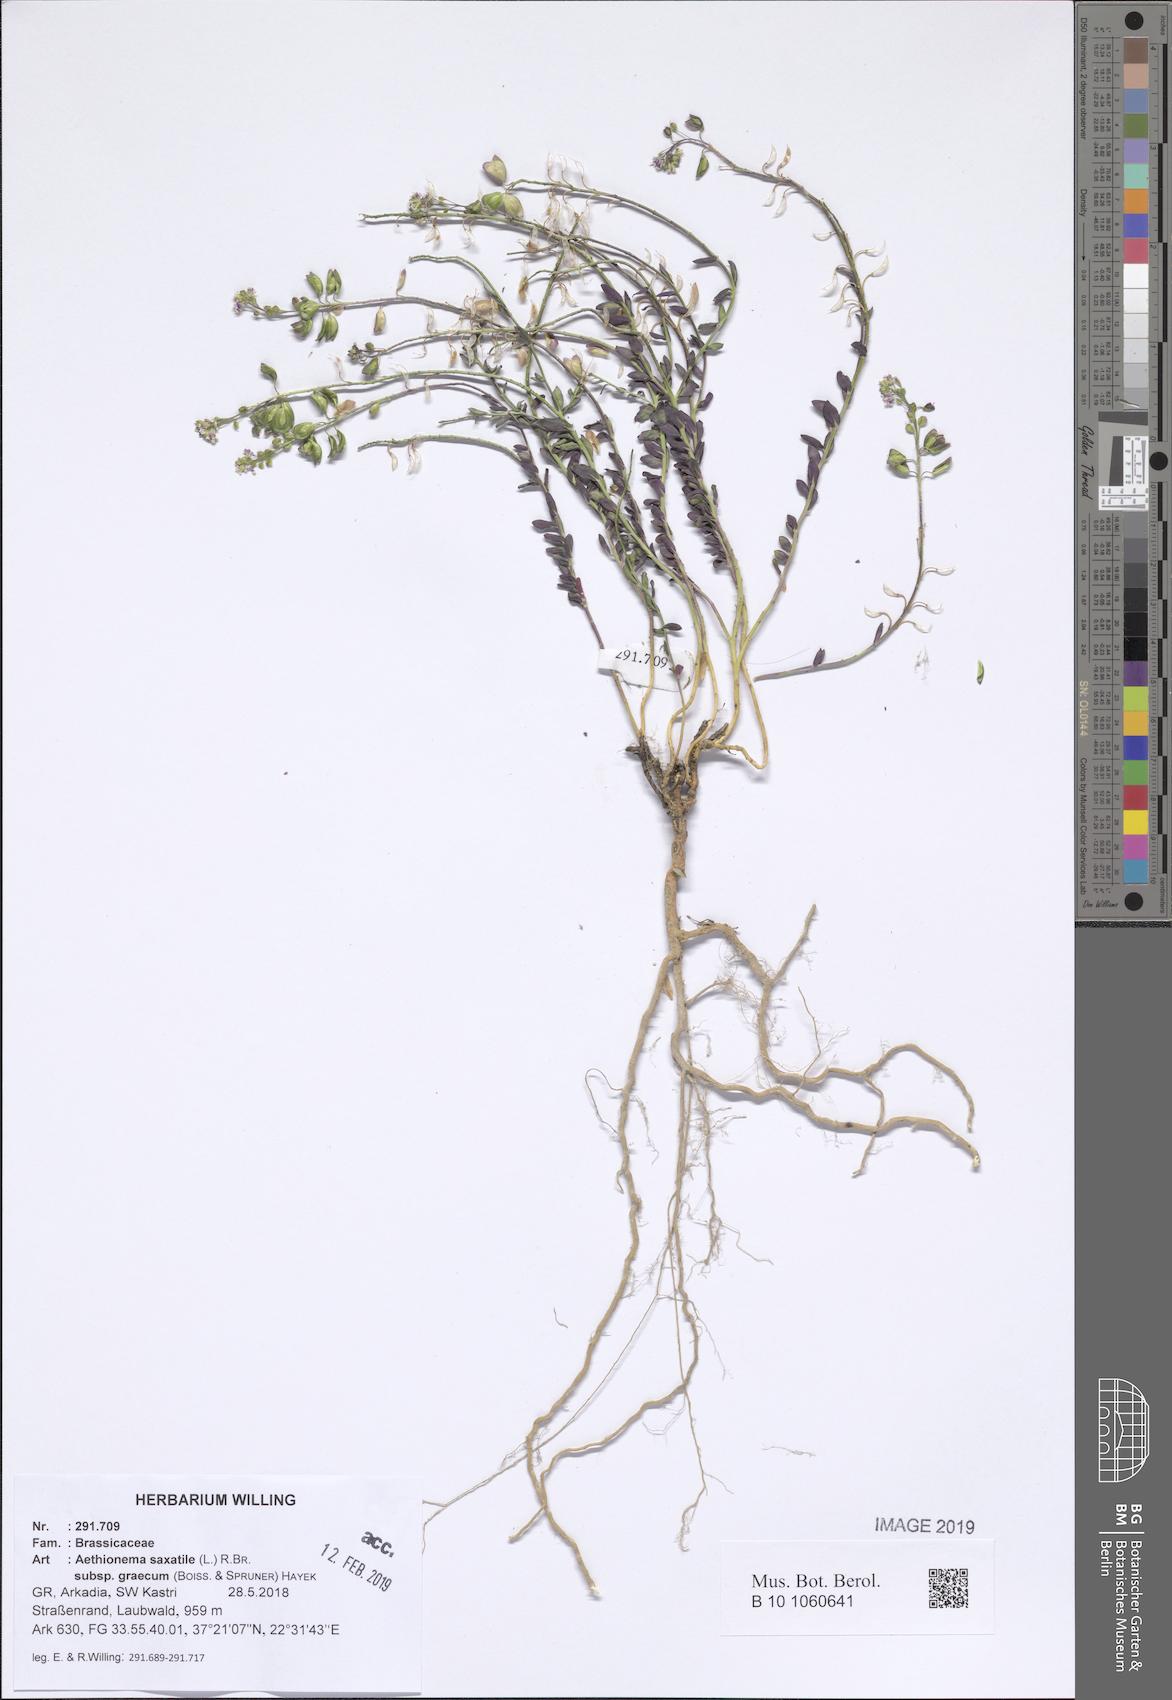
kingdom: Plantae
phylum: Tracheophyta
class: Magnoliopsida
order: Brassicales
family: Brassicaceae
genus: Aethionema
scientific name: Aethionema saxatile
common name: Burnt candytuft
